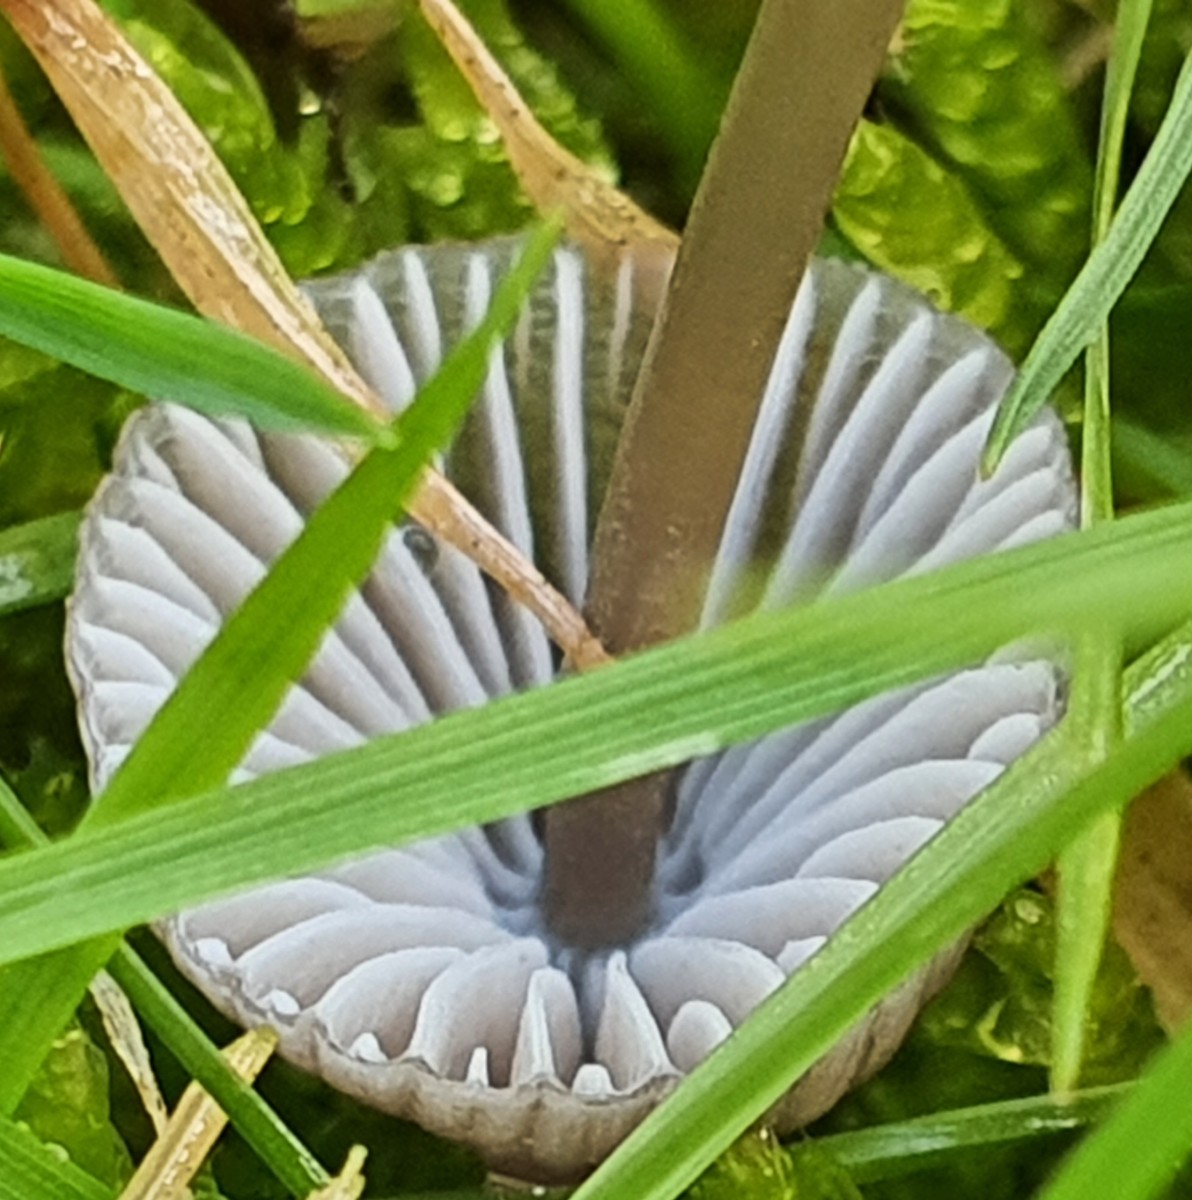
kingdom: Fungi
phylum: Basidiomycota
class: Agaricomycetes
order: Agaricales
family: Mycenaceae
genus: Mycena
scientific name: Mycena leptocephala
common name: klor-huesvamp
